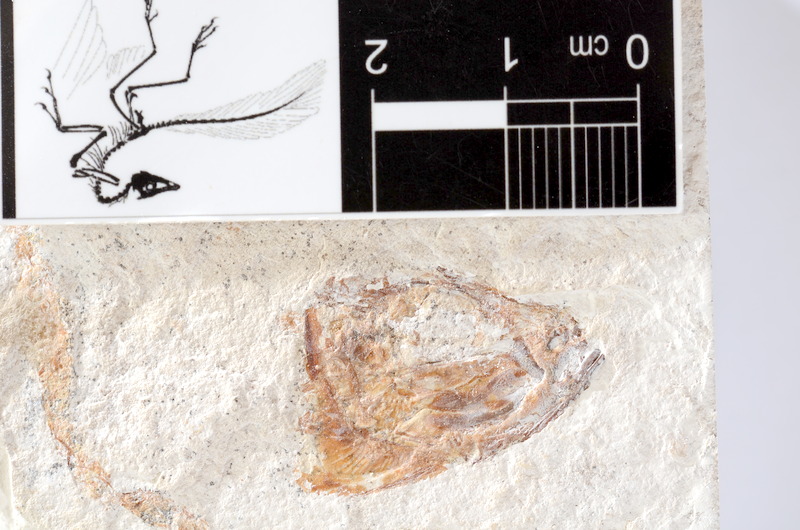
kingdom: Animalia
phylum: Chordata
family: Ascalaboidae
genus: Tharsis
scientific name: Tharsis dubius
